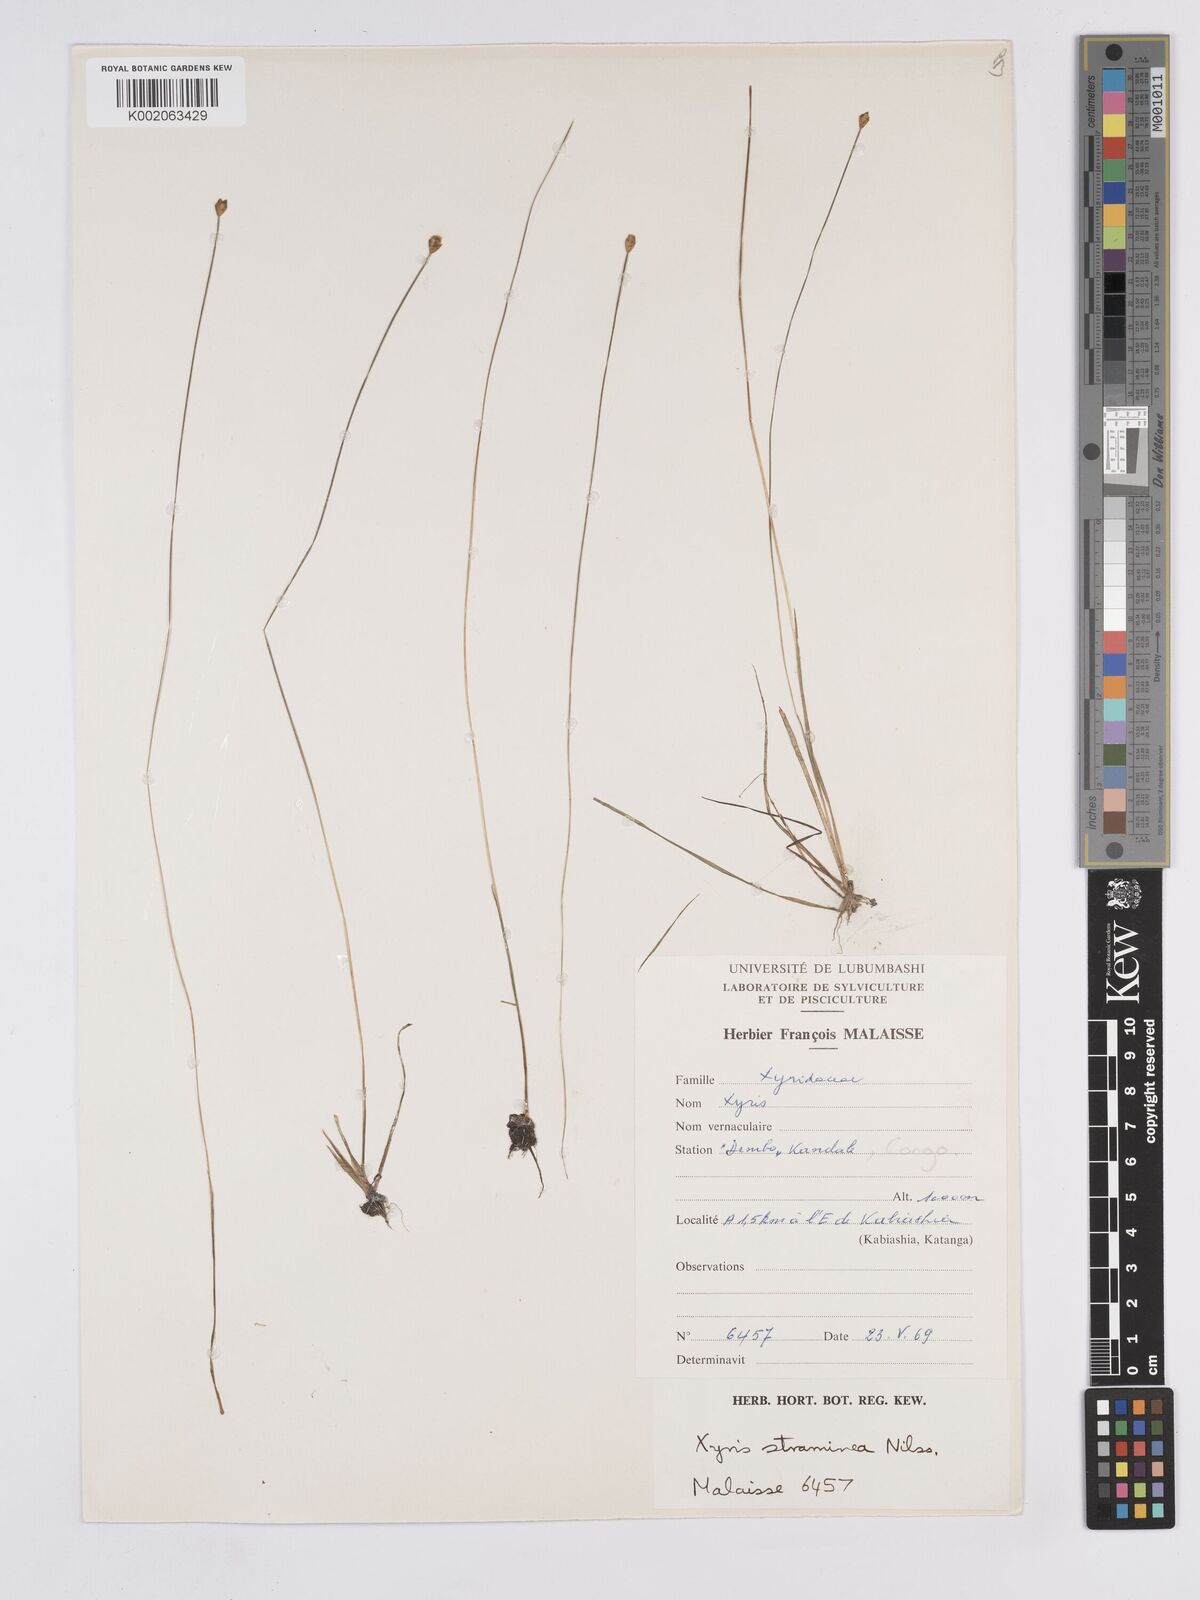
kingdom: Plantae
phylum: Tracheophyta
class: Liliopsida
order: Poales
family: Xyridaceae
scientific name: Xyridaceae
